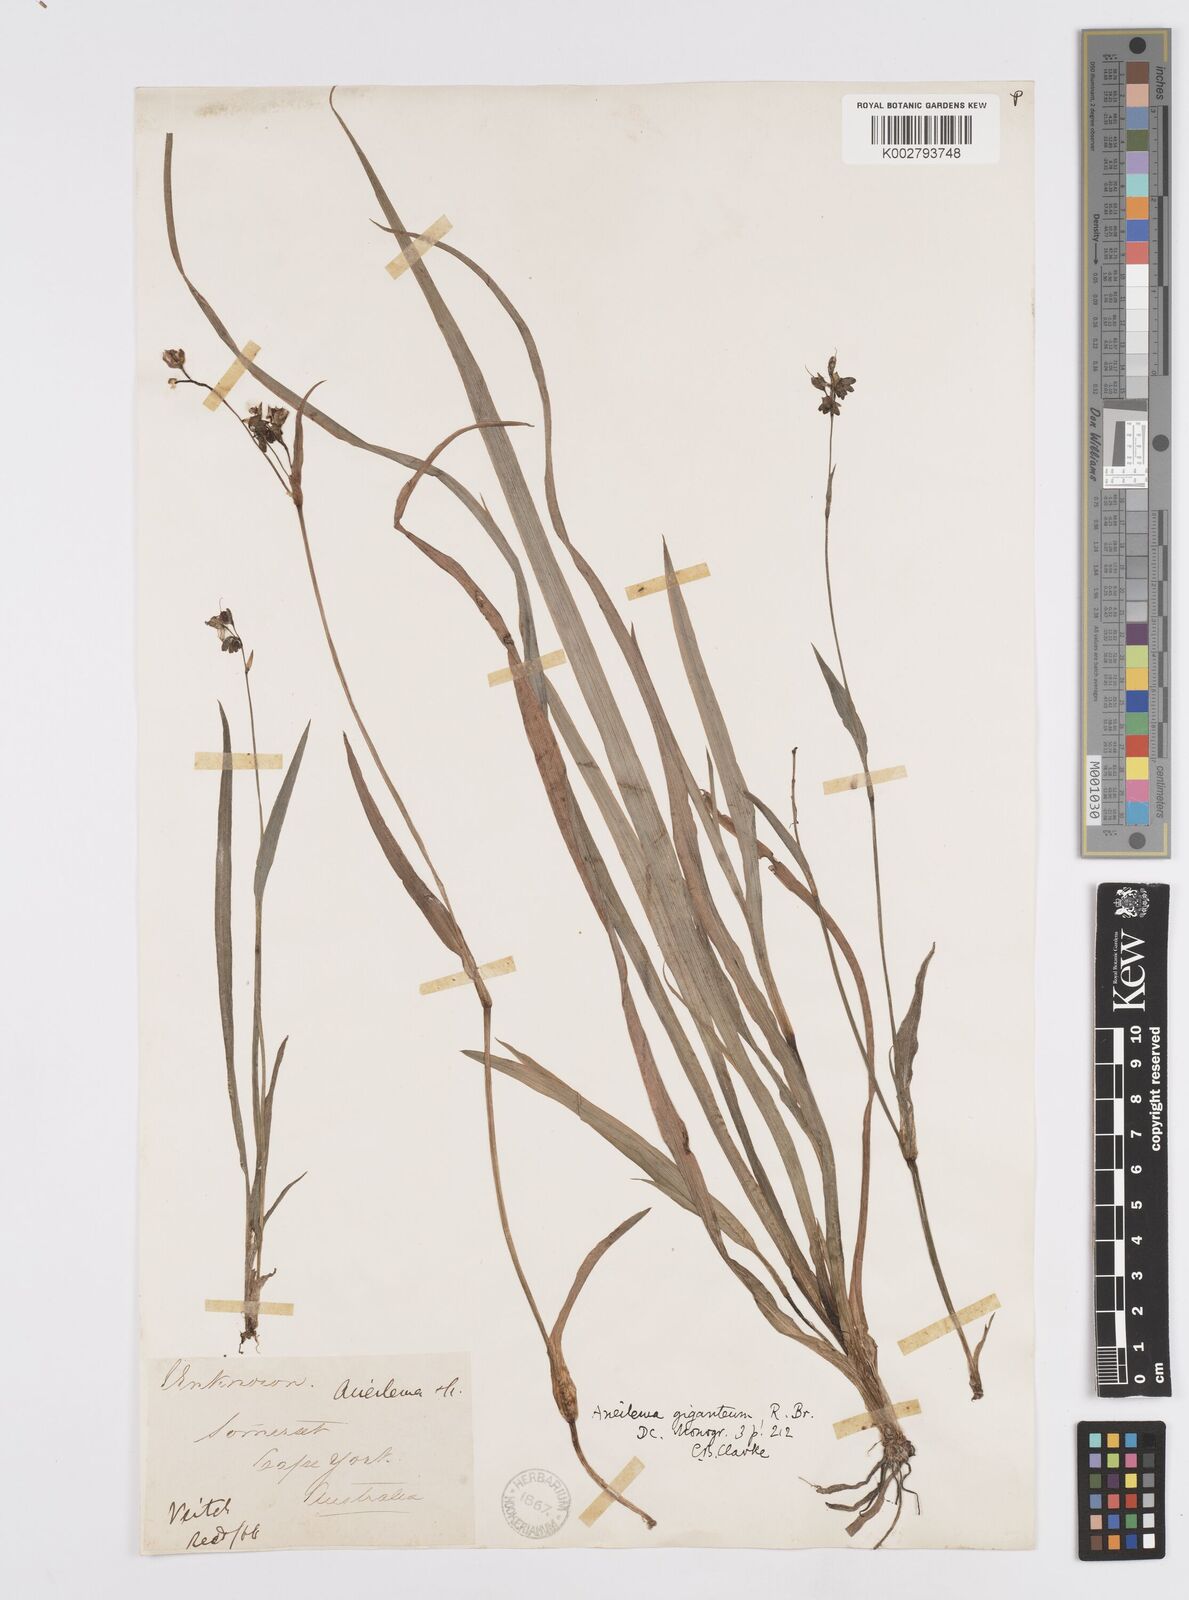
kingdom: Plantae
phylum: Tracheophyta
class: Liliopsida
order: Commelinales
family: Commelinaceae
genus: Murdannia
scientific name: Murdannia gigantea
